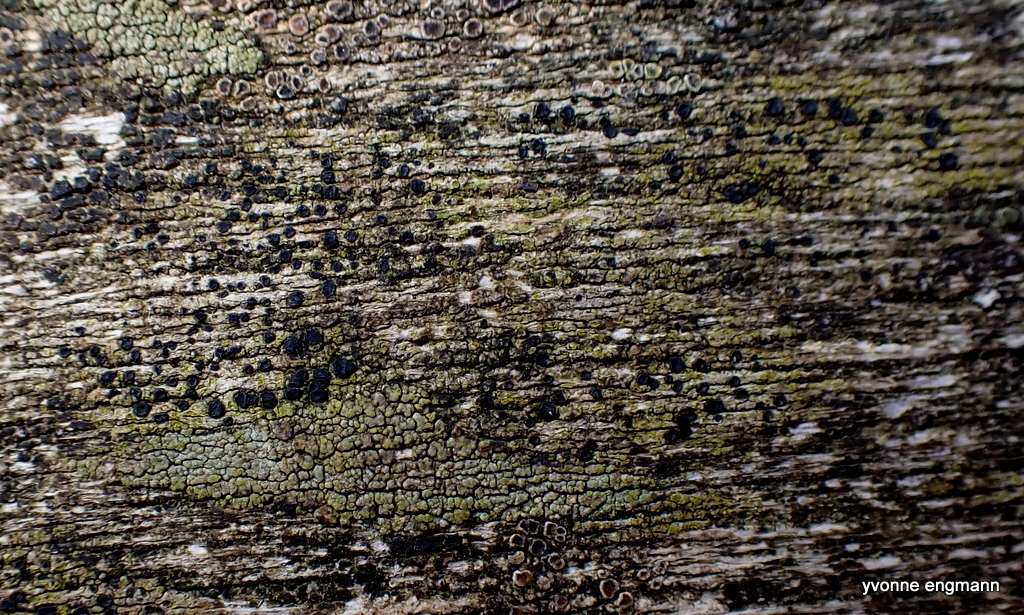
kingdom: Fungi
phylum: Ascomycota
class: Lecanoromycetes
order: Lecanorales
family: Lecanoraceae
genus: Lecidella
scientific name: Lecidella elaeochroma
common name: grågrøn skivelav
